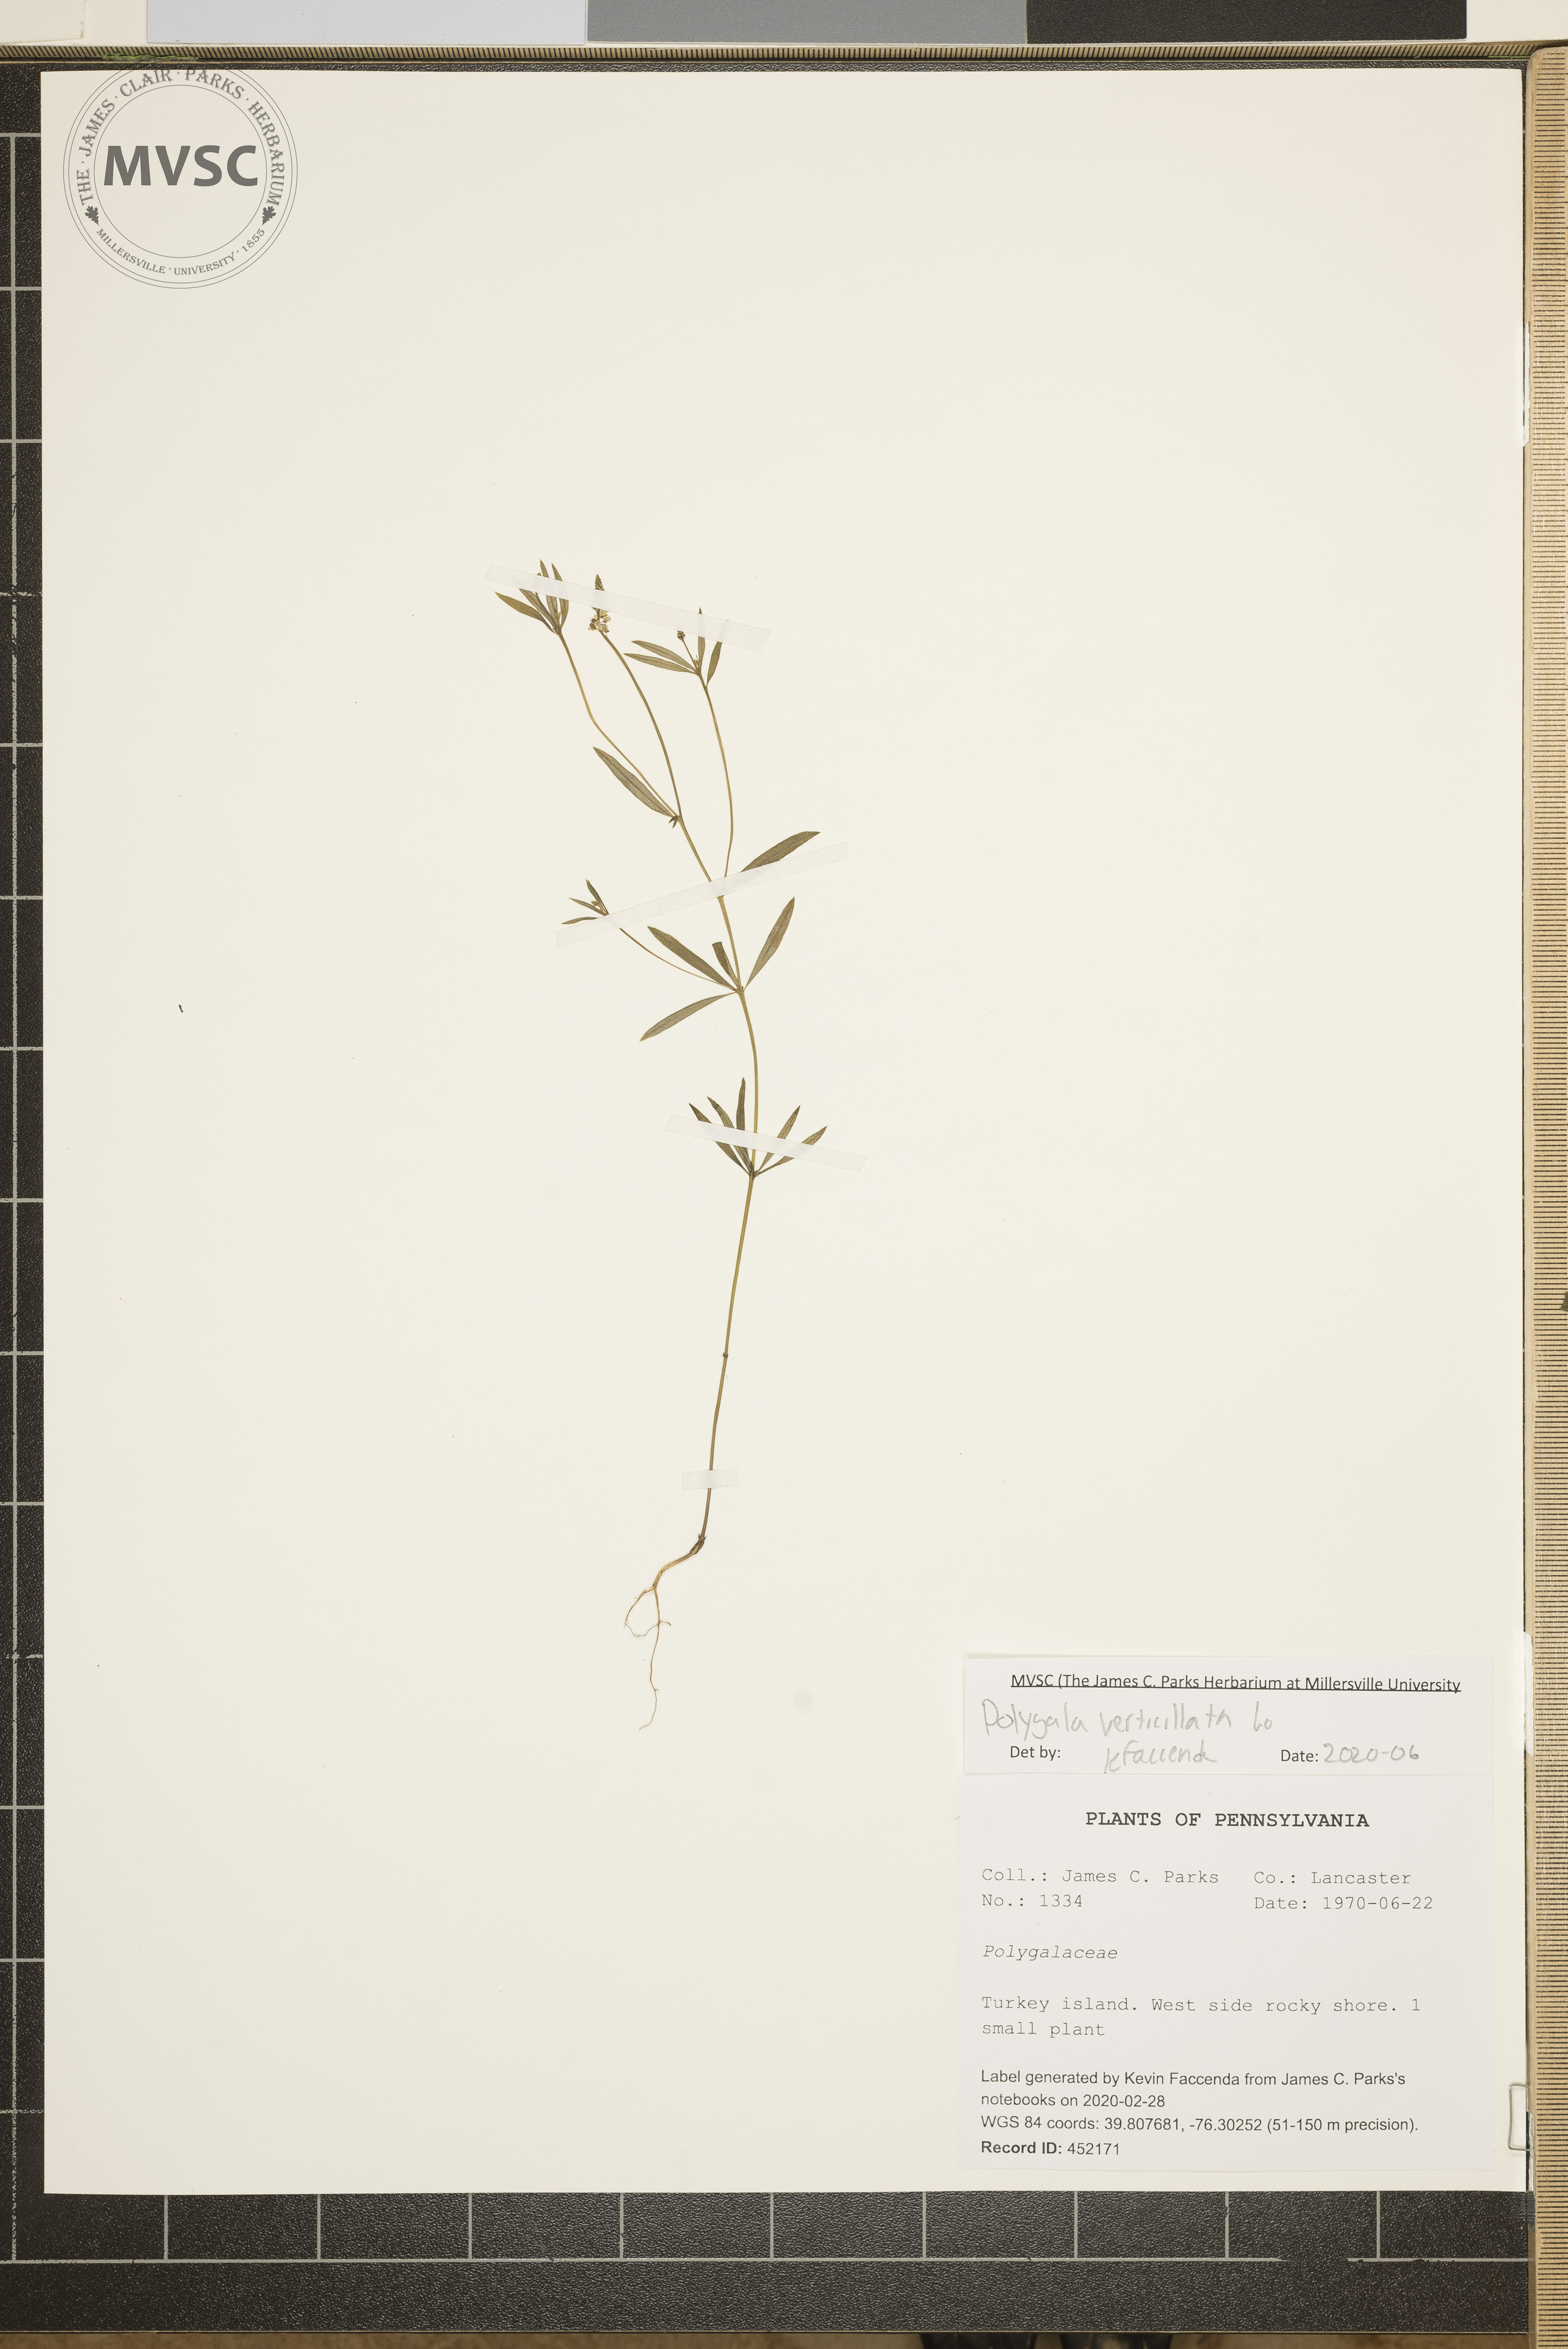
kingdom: Plantae
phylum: Tracheophyta
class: Magnoliopsida
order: Fabales
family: Polygalaceae
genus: Polygala
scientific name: Polygala verticillata
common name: Whorl milkwort
